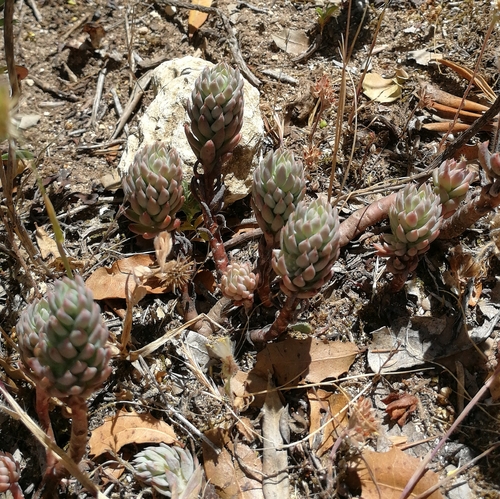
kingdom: Plantae
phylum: Tracheophyta
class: Magnoliopsida
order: Saxifragales
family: Crassulaceae
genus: Petrosedum
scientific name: Petrosedum sediforme
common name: Pale stonecrop
